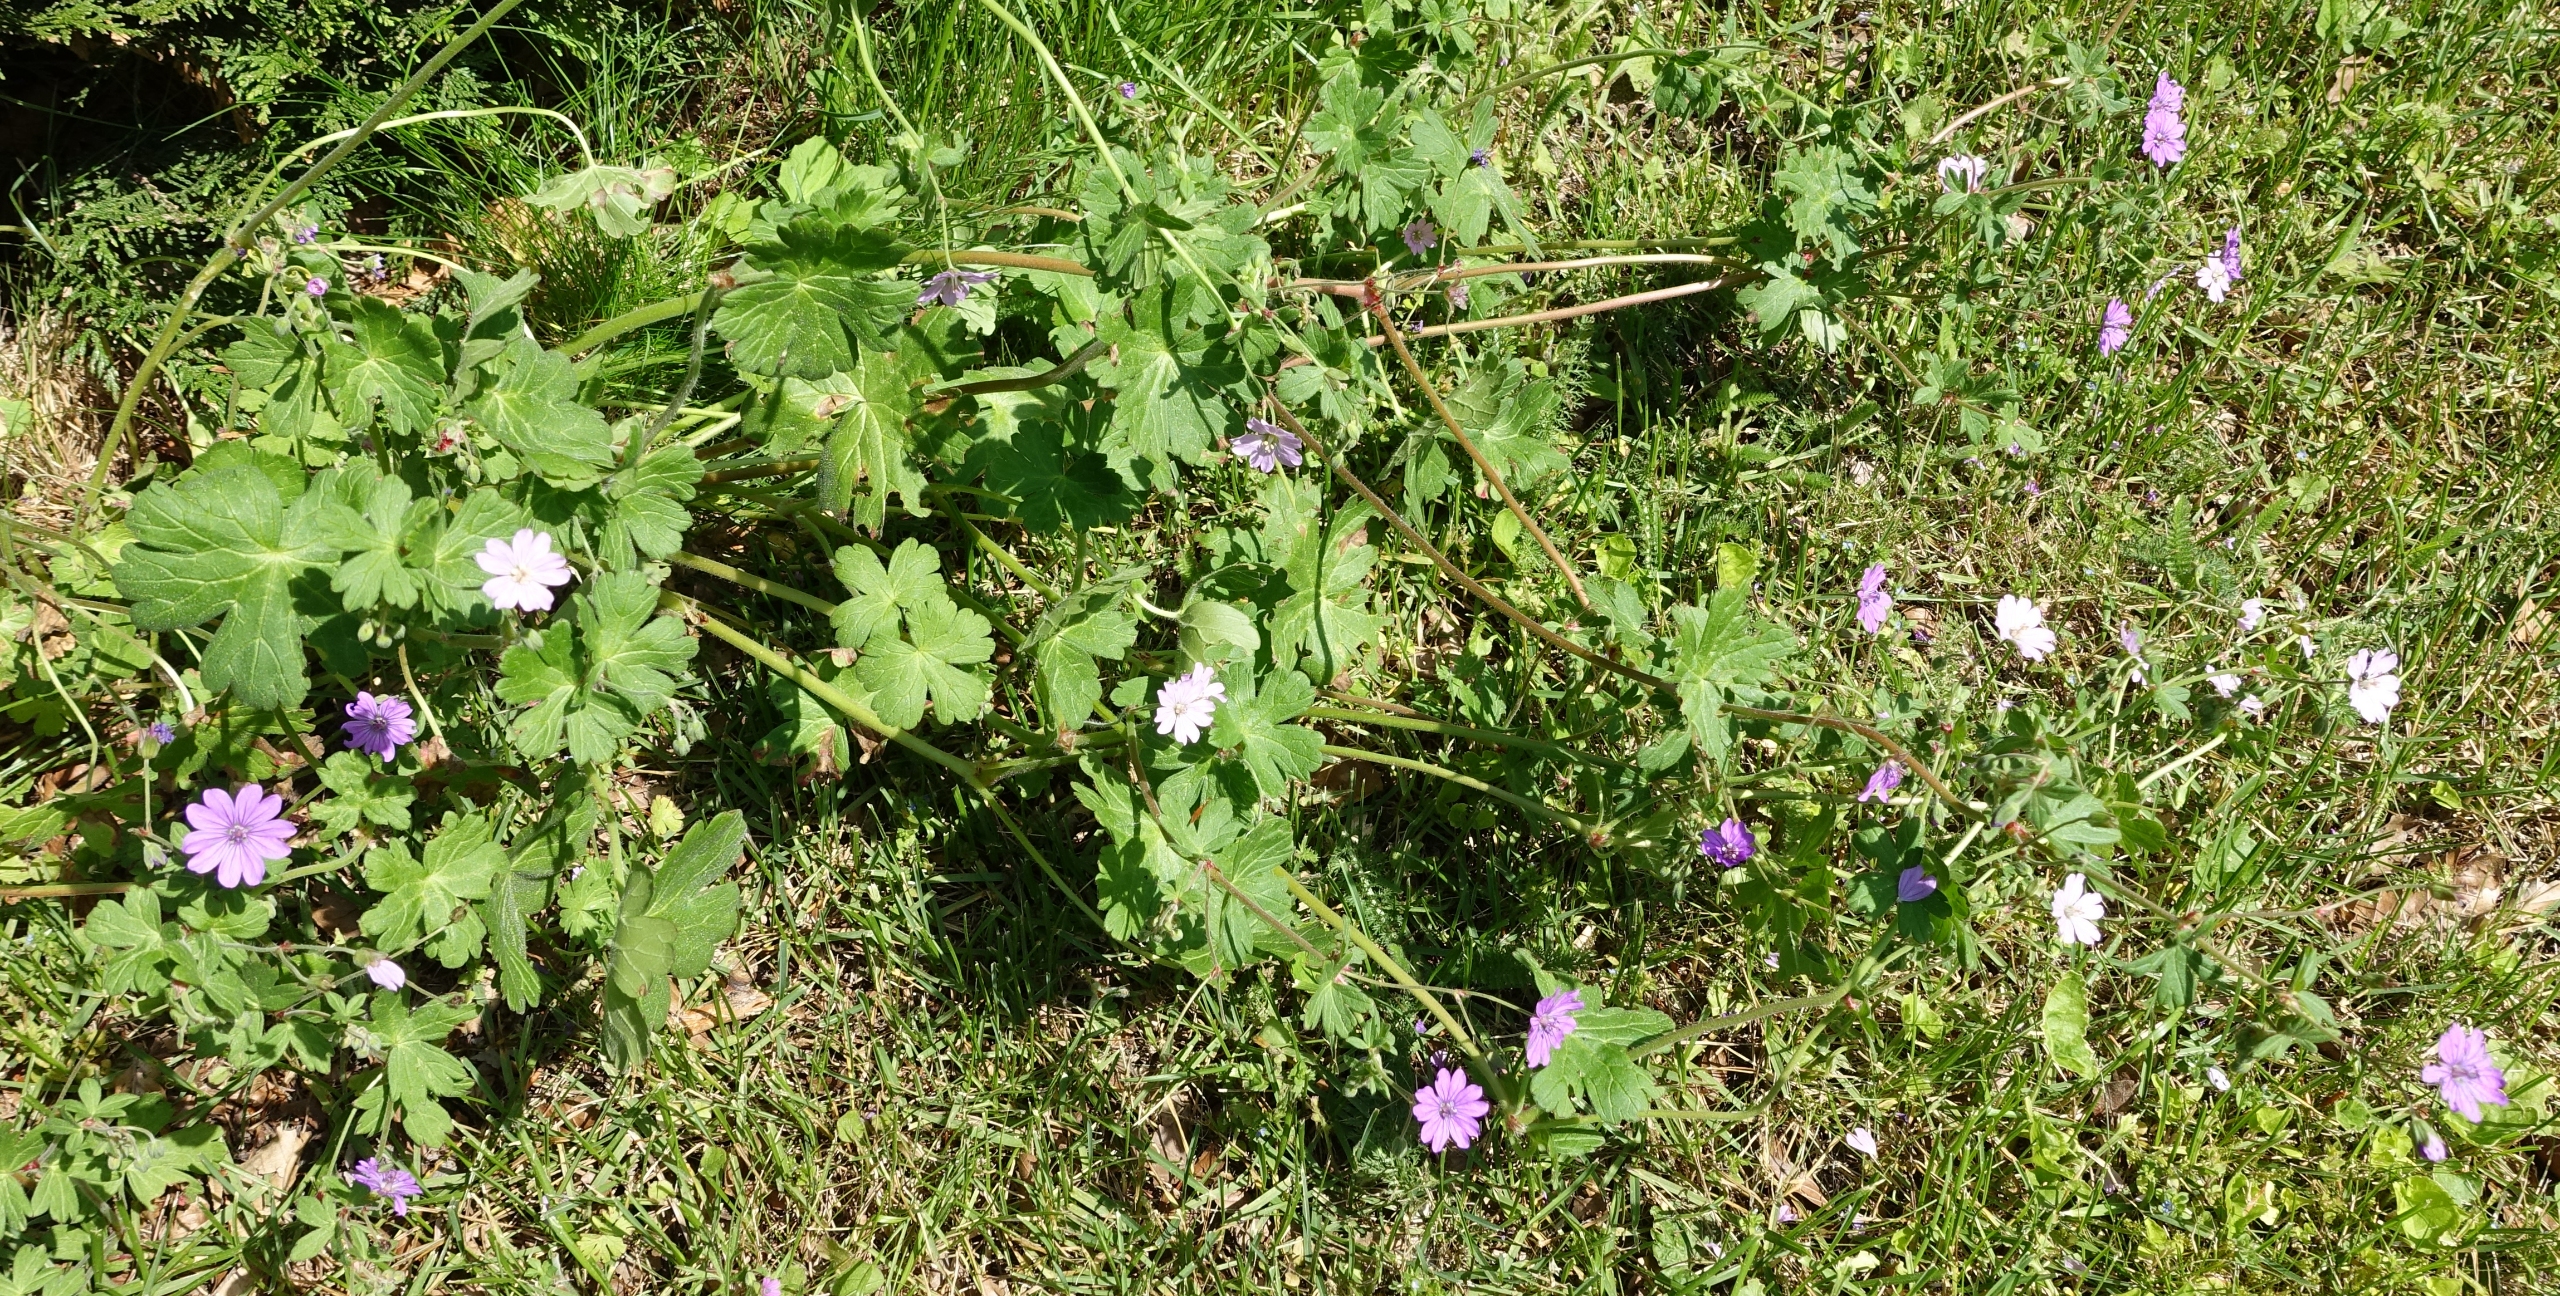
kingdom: Plantae
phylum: Tracheophyta
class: Magnoliopsida
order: Geraniales
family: Geraniaceae
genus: Geranium
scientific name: Geranium pyrenaicum
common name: Pyrenæisk storkenæb
